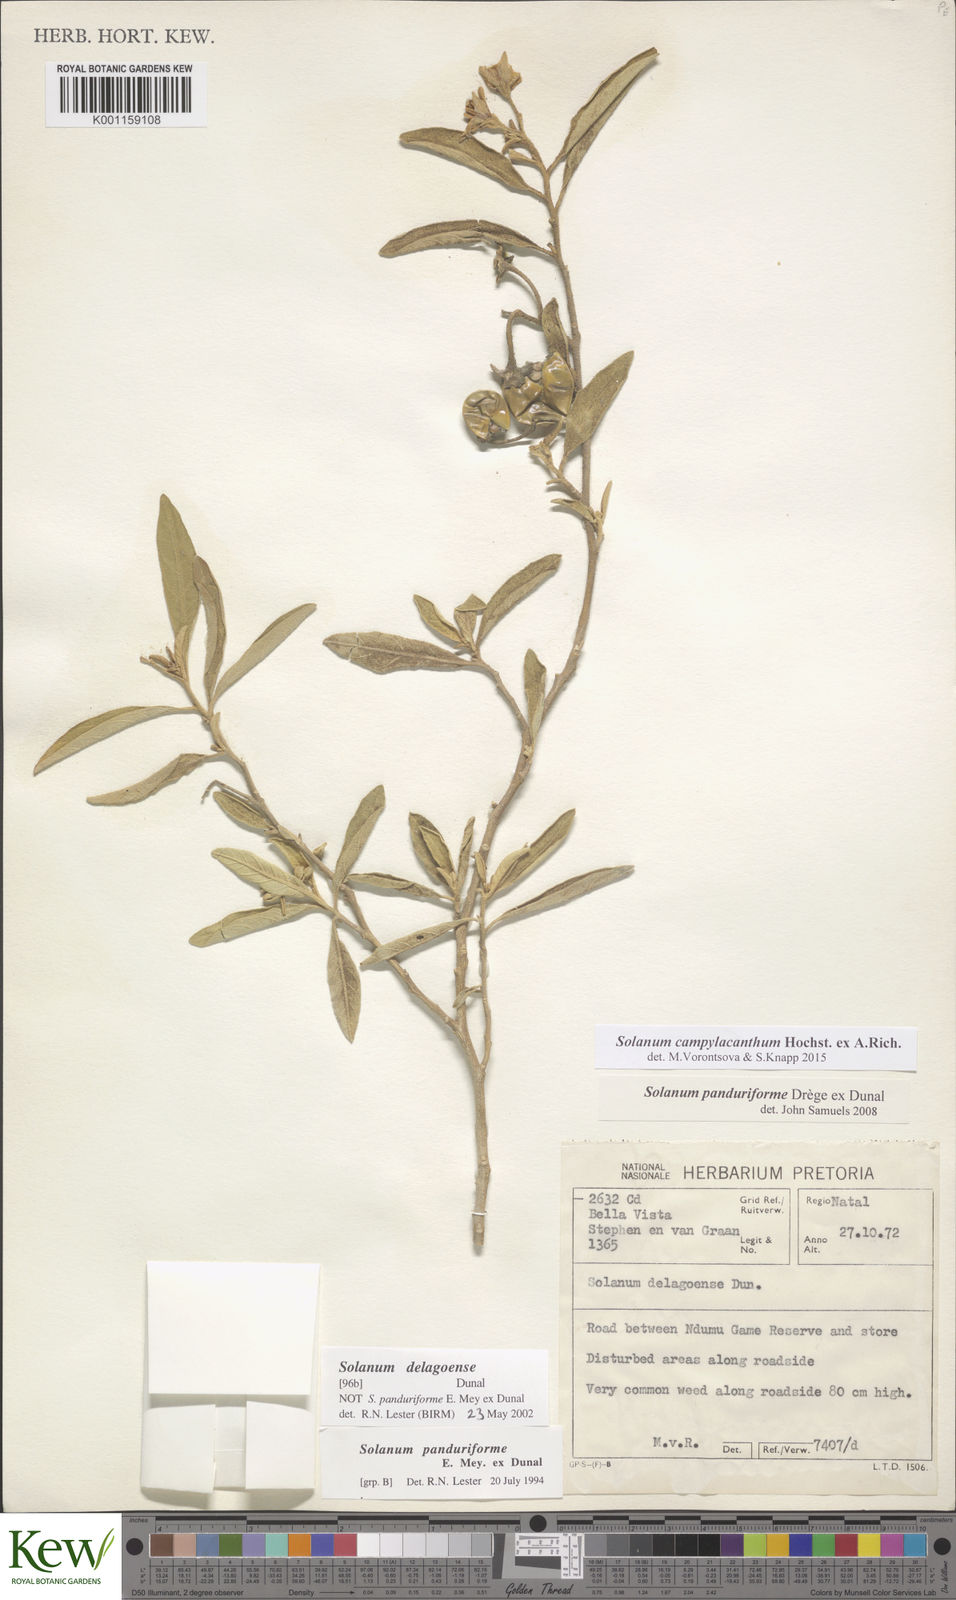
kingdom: Plantae
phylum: Tracheophyta
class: Magnoliopsida
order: Solanales
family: Solanaceae
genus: Solanum
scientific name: Solanum campylacanthum
